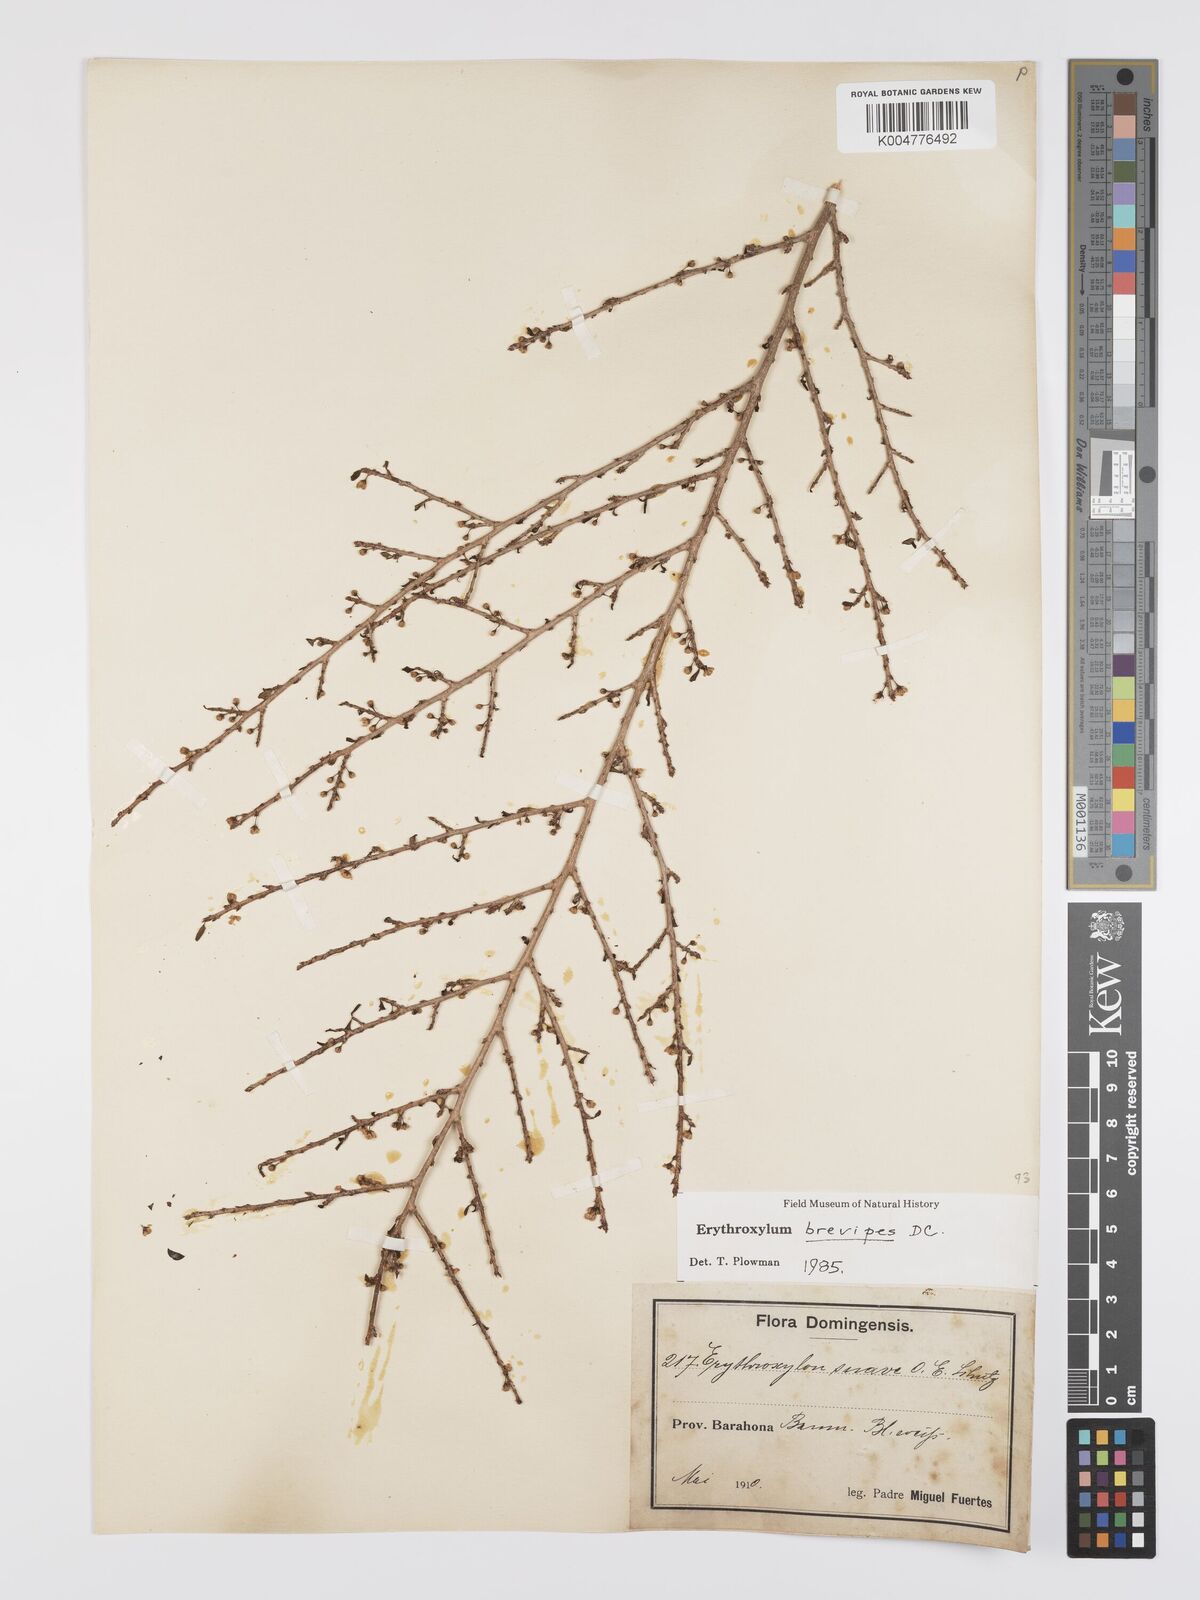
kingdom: Plantae
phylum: Tracheophyta
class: Magnoliopsida
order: Malpighiales
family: Erythroxylaceae
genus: Erythroxylum
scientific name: Erythroxylum brevipes
